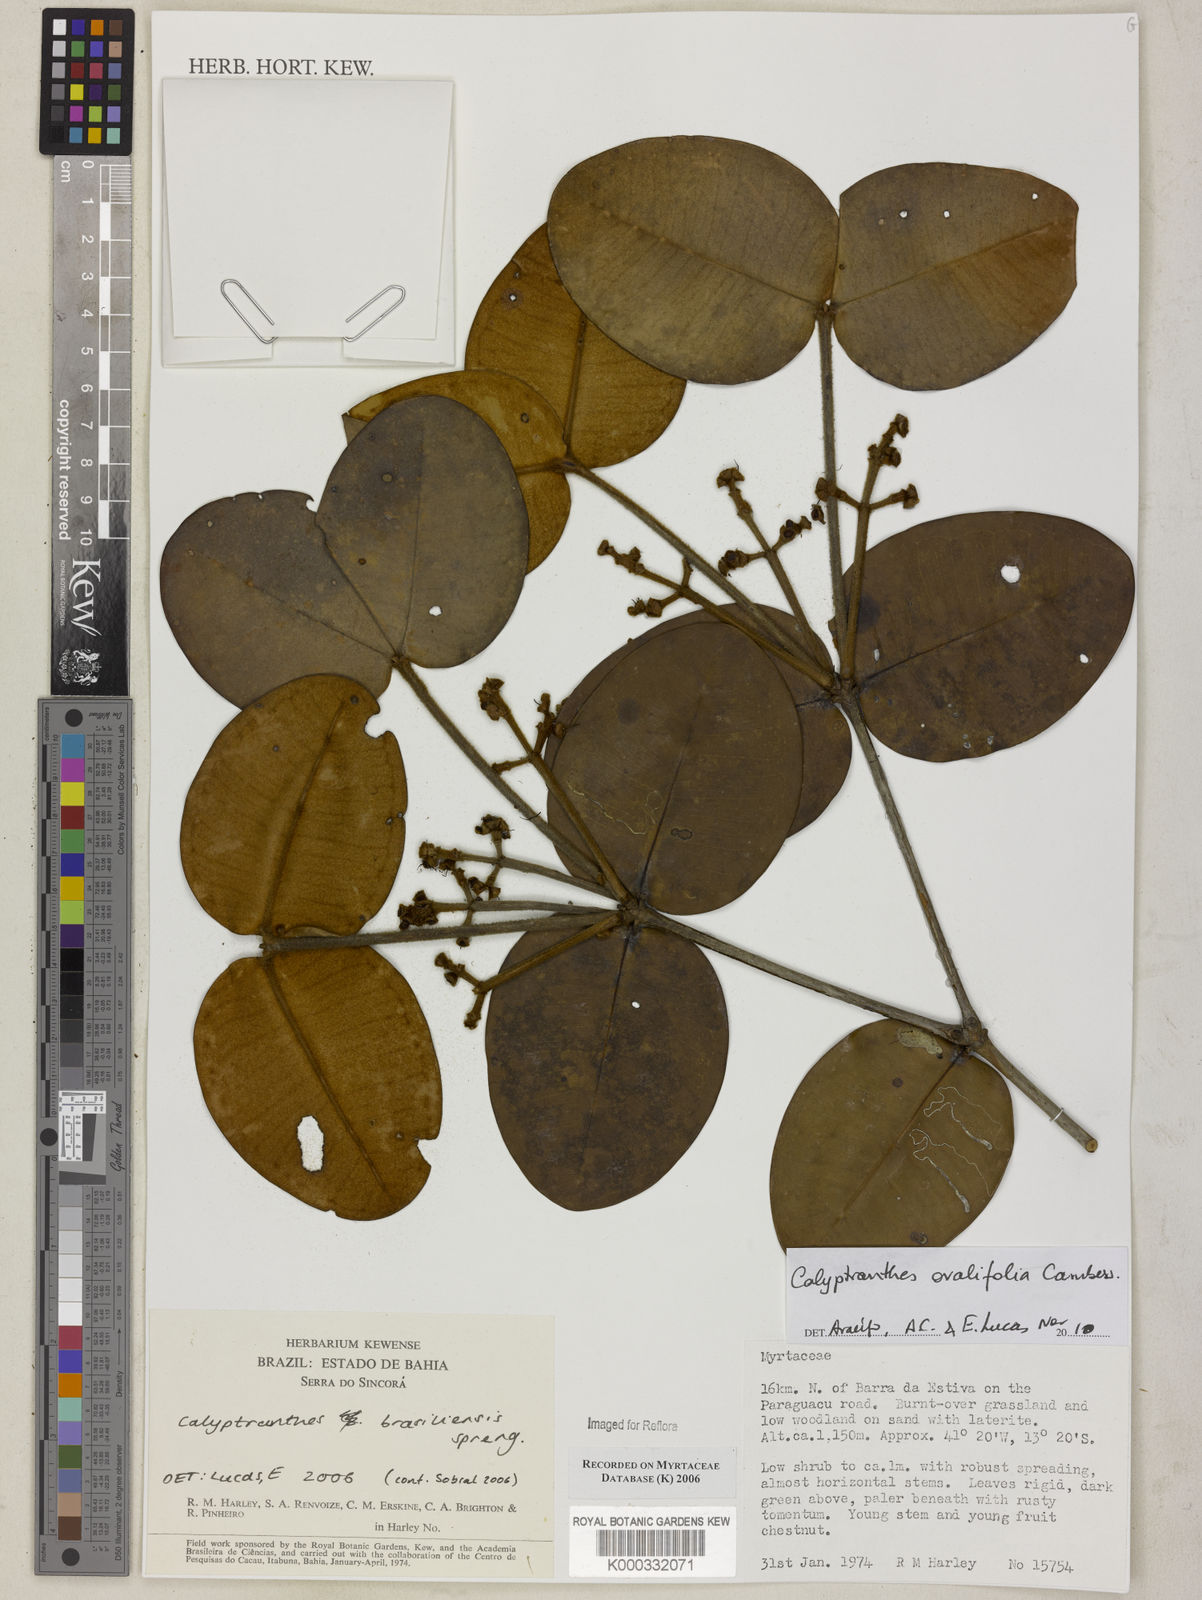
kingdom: Plantae
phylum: Tracheophyta
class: Magnoliopsida
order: Myrtales
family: Myrtaceae
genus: Myrcia
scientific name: Myrcia neobrasiliensis
